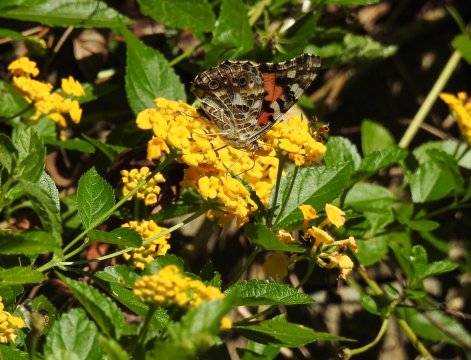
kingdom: Animalia
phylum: Arthropoda
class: Insecta
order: Lepidoptera
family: Nymphalidae
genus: Vanessa
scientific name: Vanessa cardui
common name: Painted Lady
